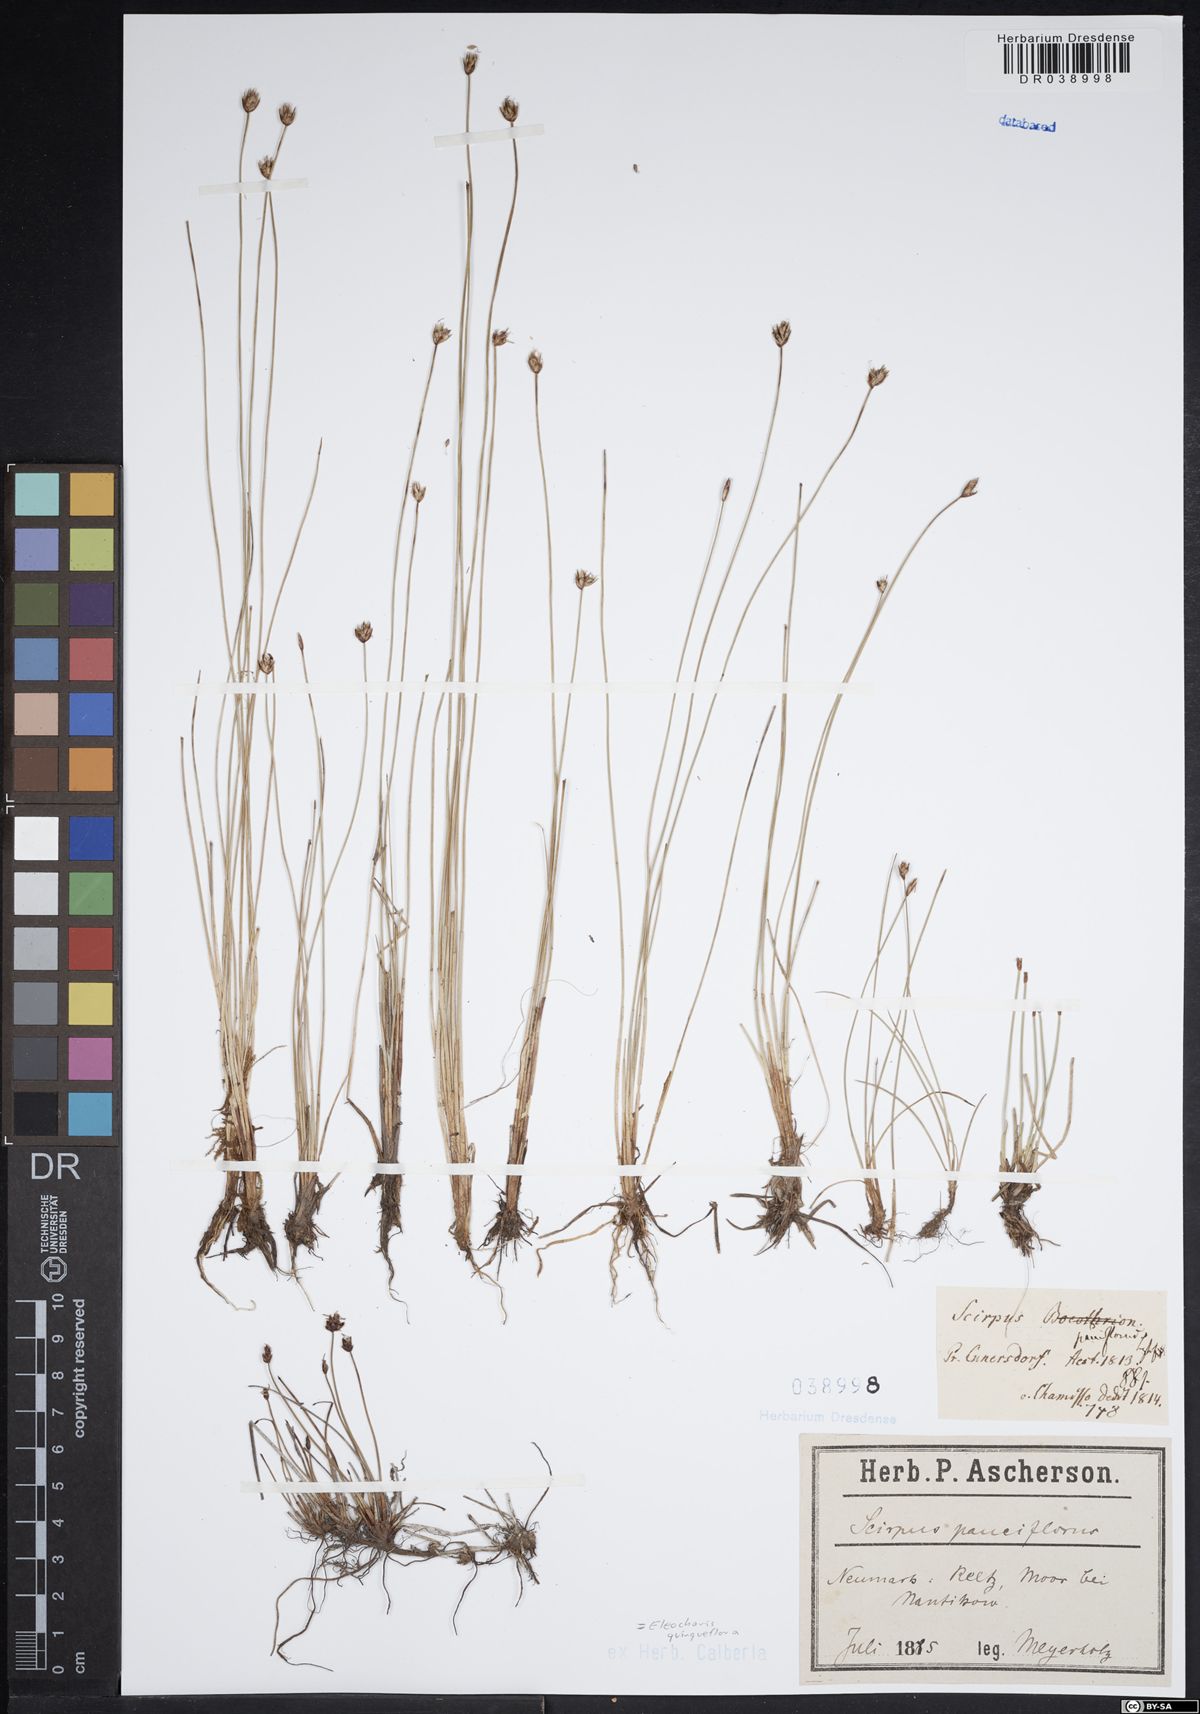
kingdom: Plantae
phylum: Tracheophyta
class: Liliopsida
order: Poales
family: Cyperaceae
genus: Eleocharis
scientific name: Eleocharis quinqueflora
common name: Few-flowered spike-rush
